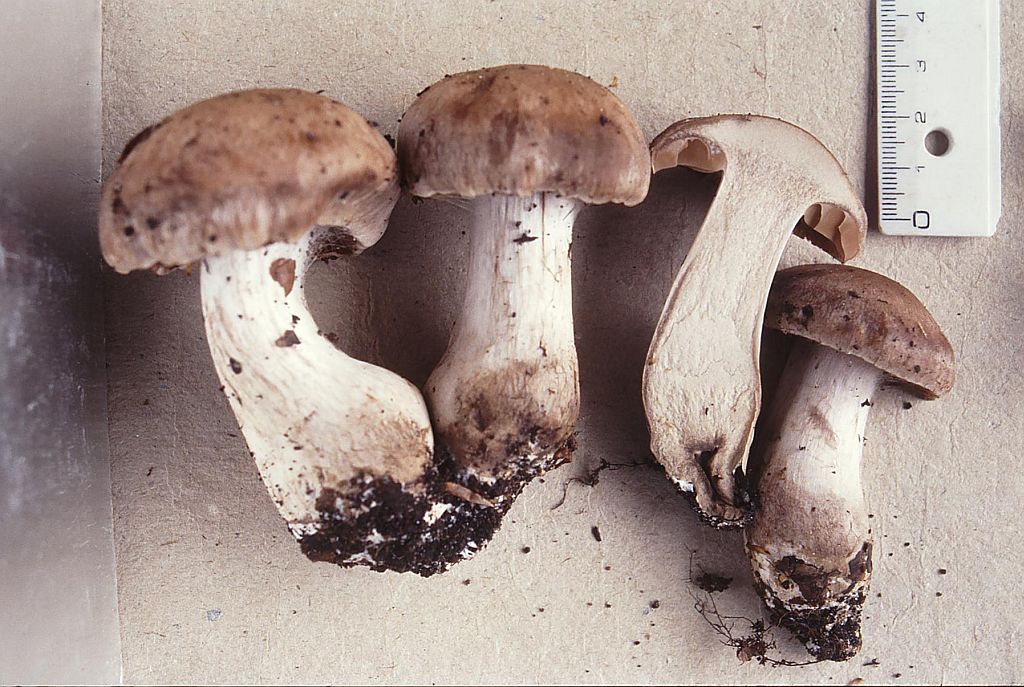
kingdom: Fungi
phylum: Basidiomycota
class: Agaricomycetes
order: Agaricales
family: Cortinariaceae
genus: Cortinarius
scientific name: Cortinarius
